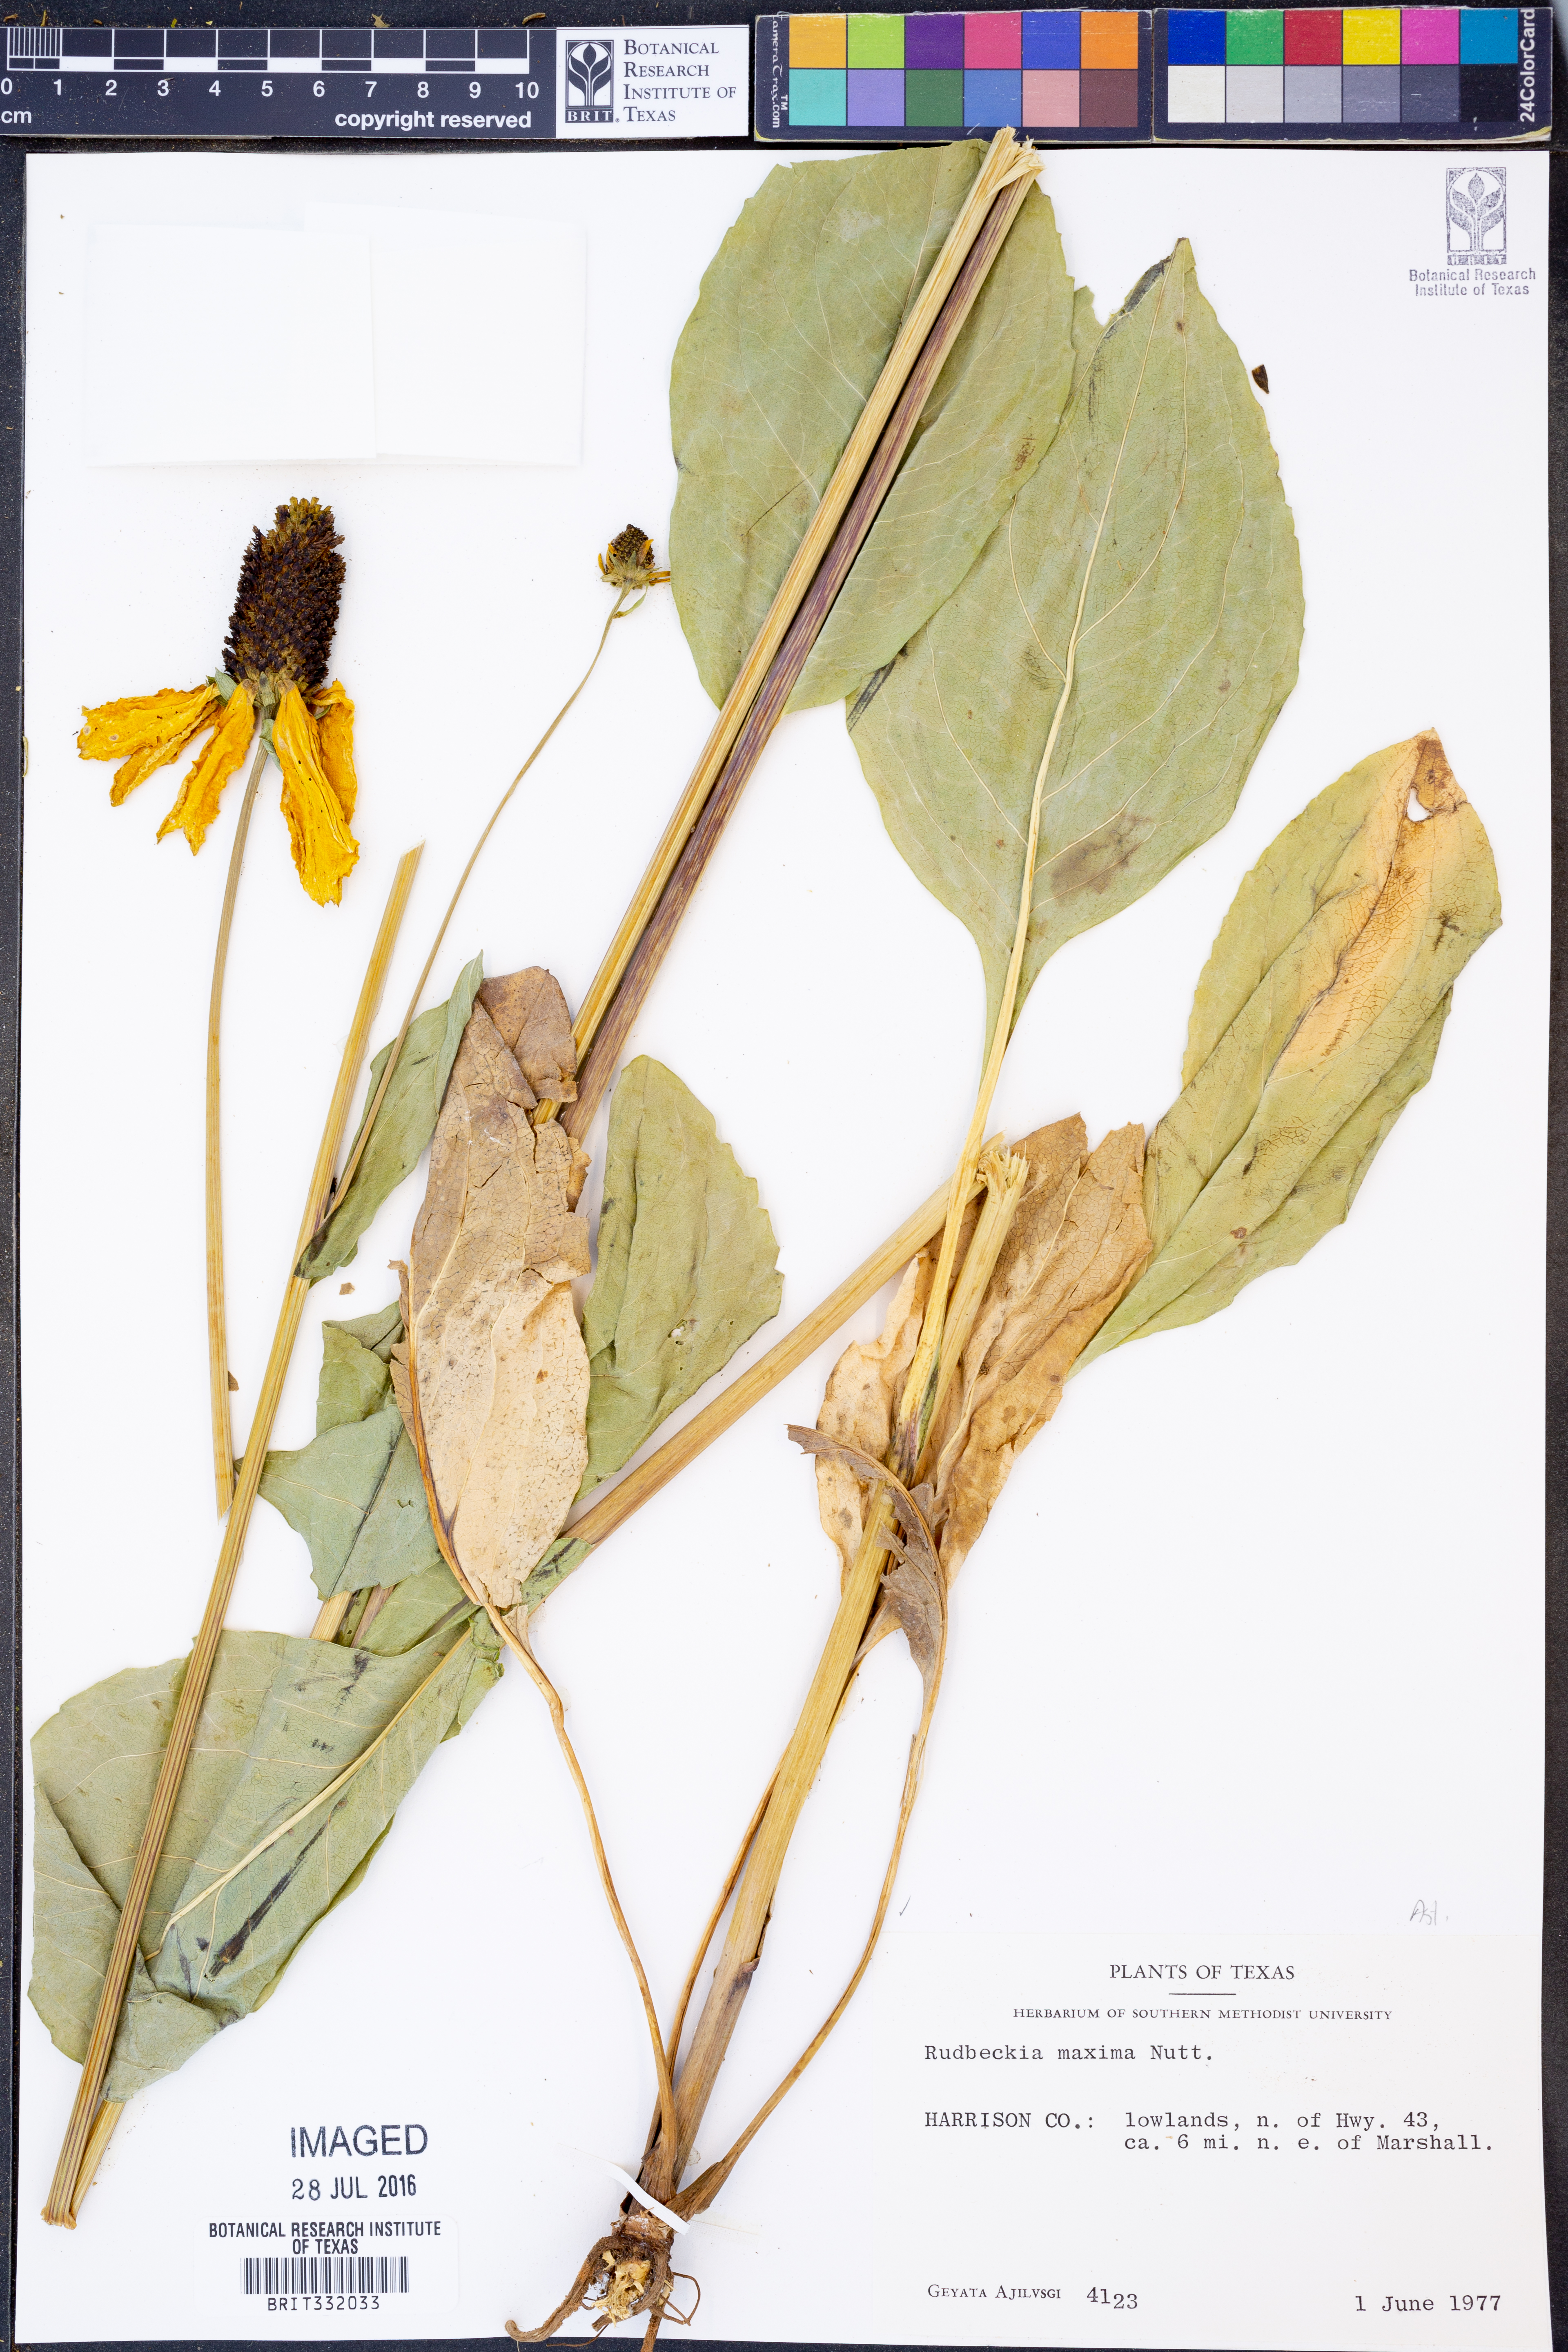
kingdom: Plantae
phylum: Tracheophyta
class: Magnoliopsida
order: Asterales
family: Asteraceae
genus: Rudbeckia
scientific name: Rudbeckia maxima
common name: Cabbage coneflower
